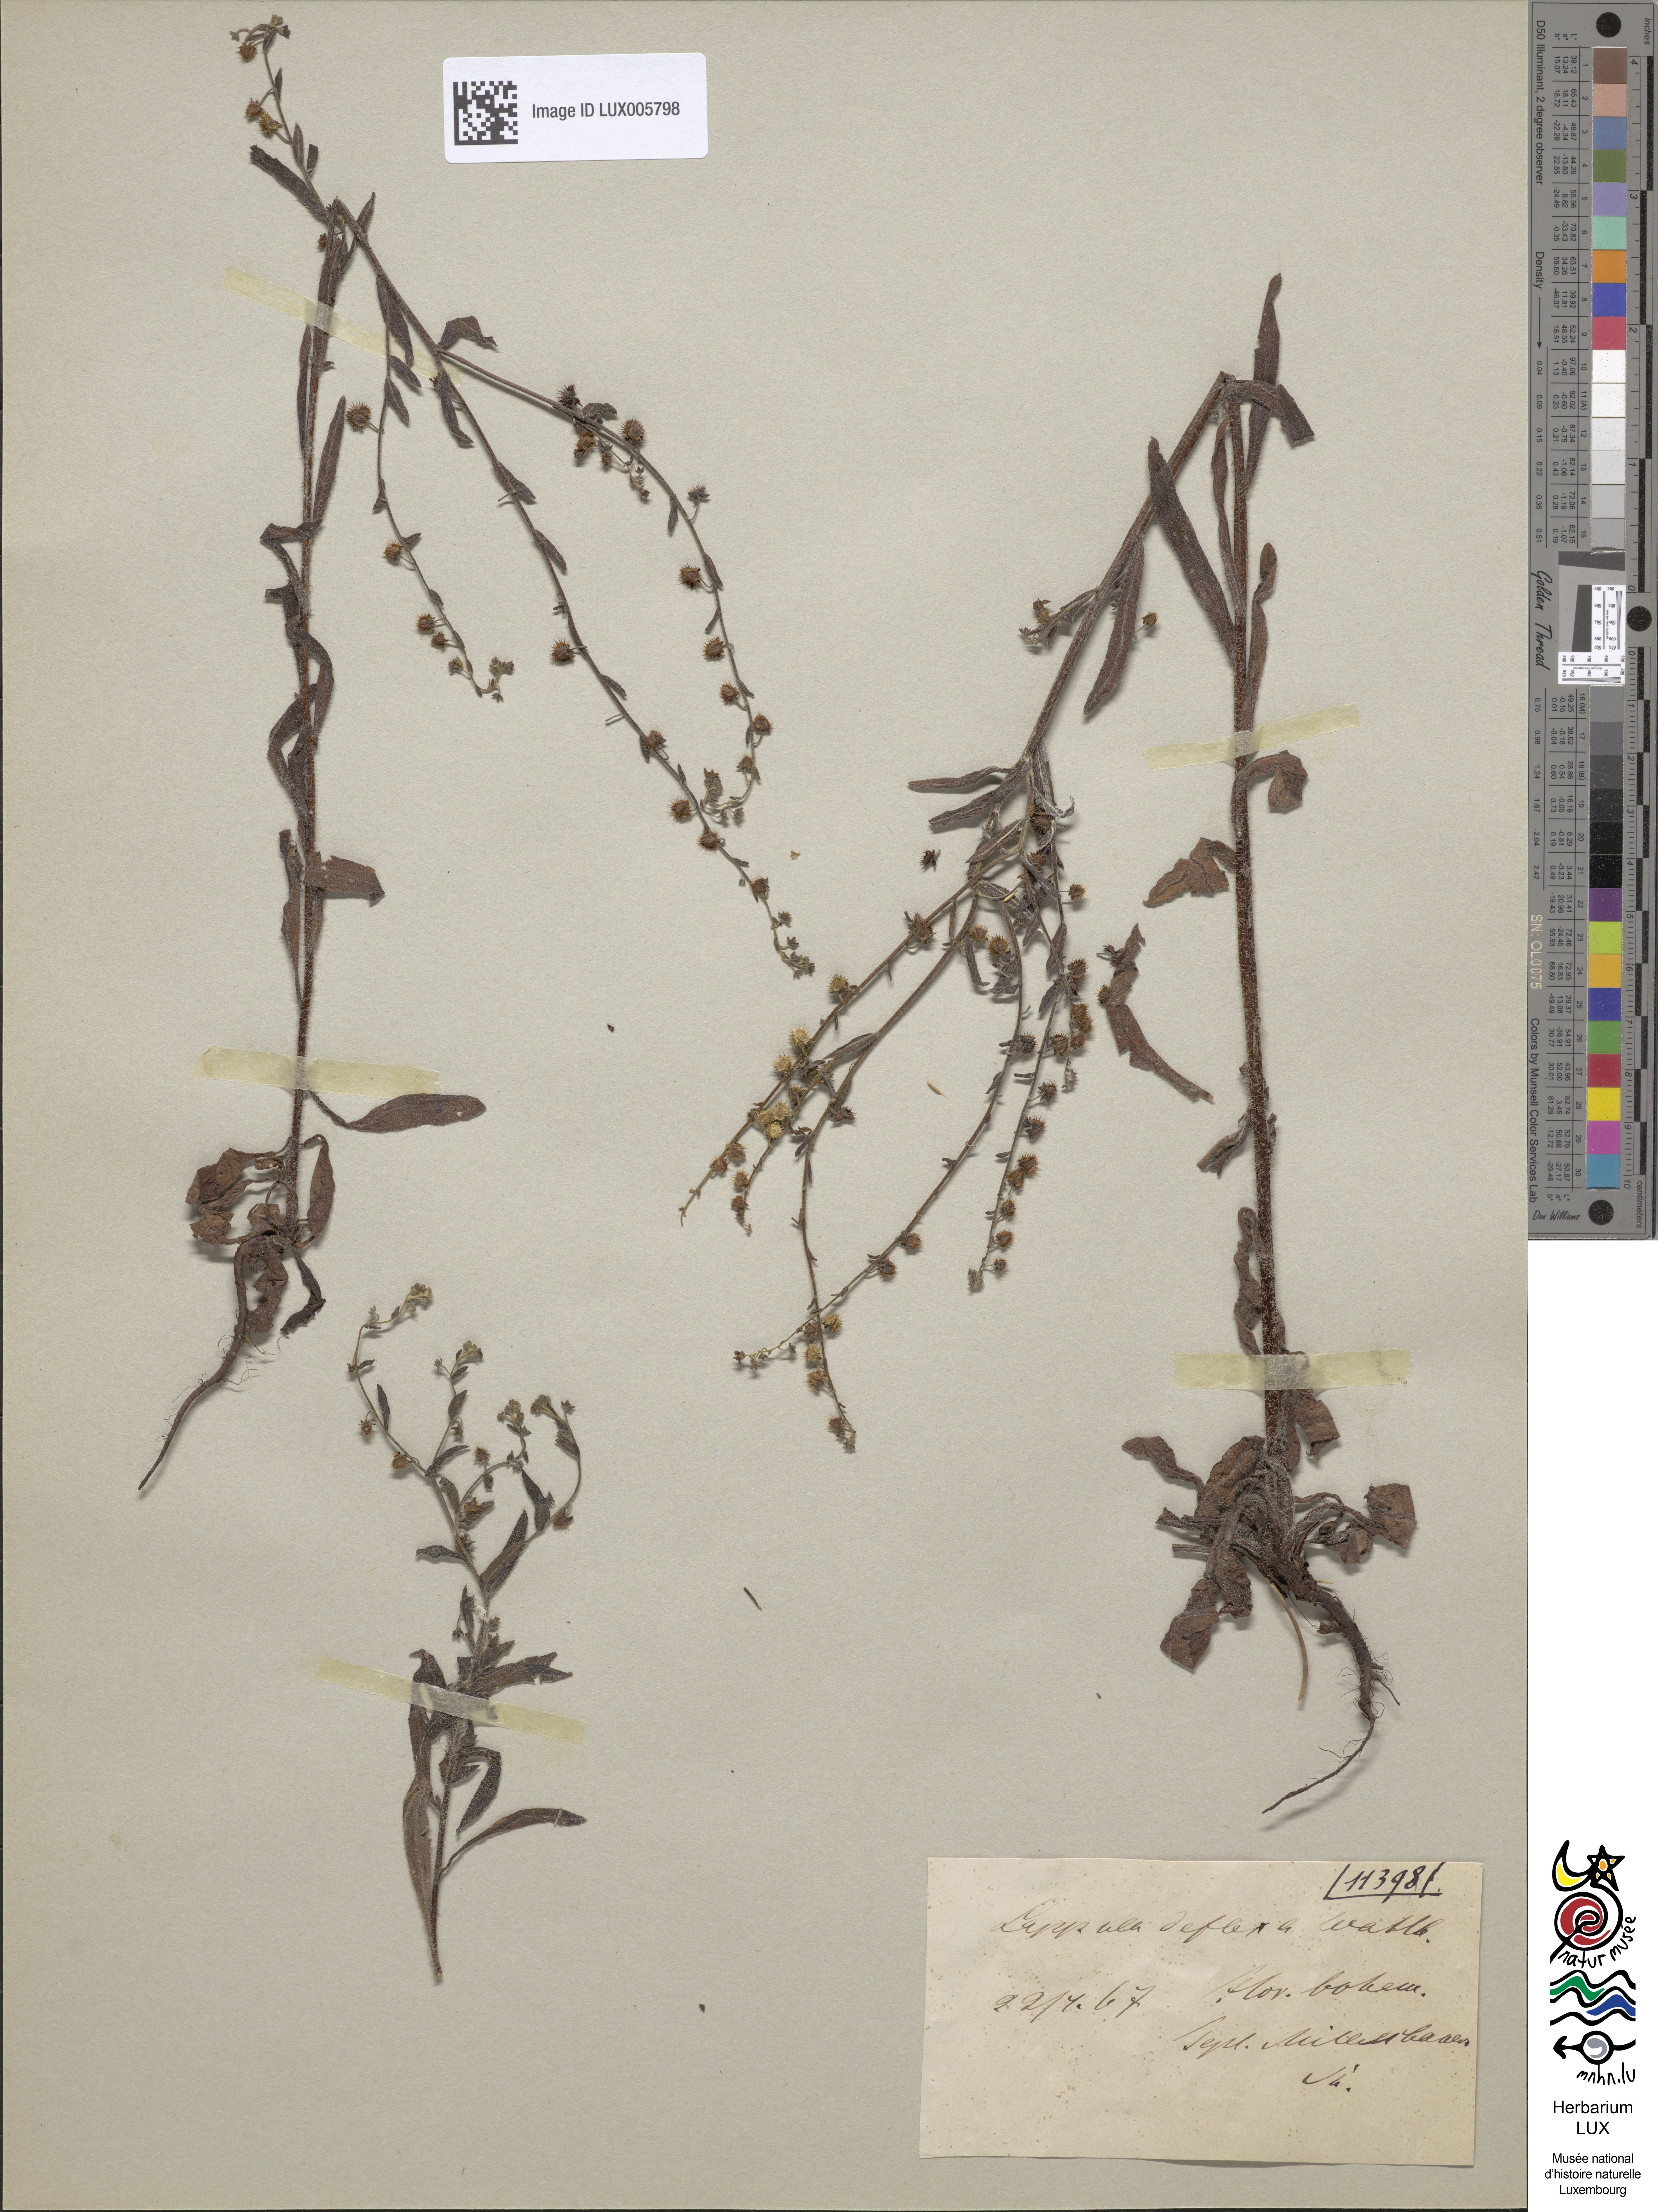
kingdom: Plantae
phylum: Tracheophyta
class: Magnoliopsida
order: Boraginales
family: Boraginaceae
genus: Hackelia
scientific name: Hackelia deflexa
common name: Nodding stickseed
